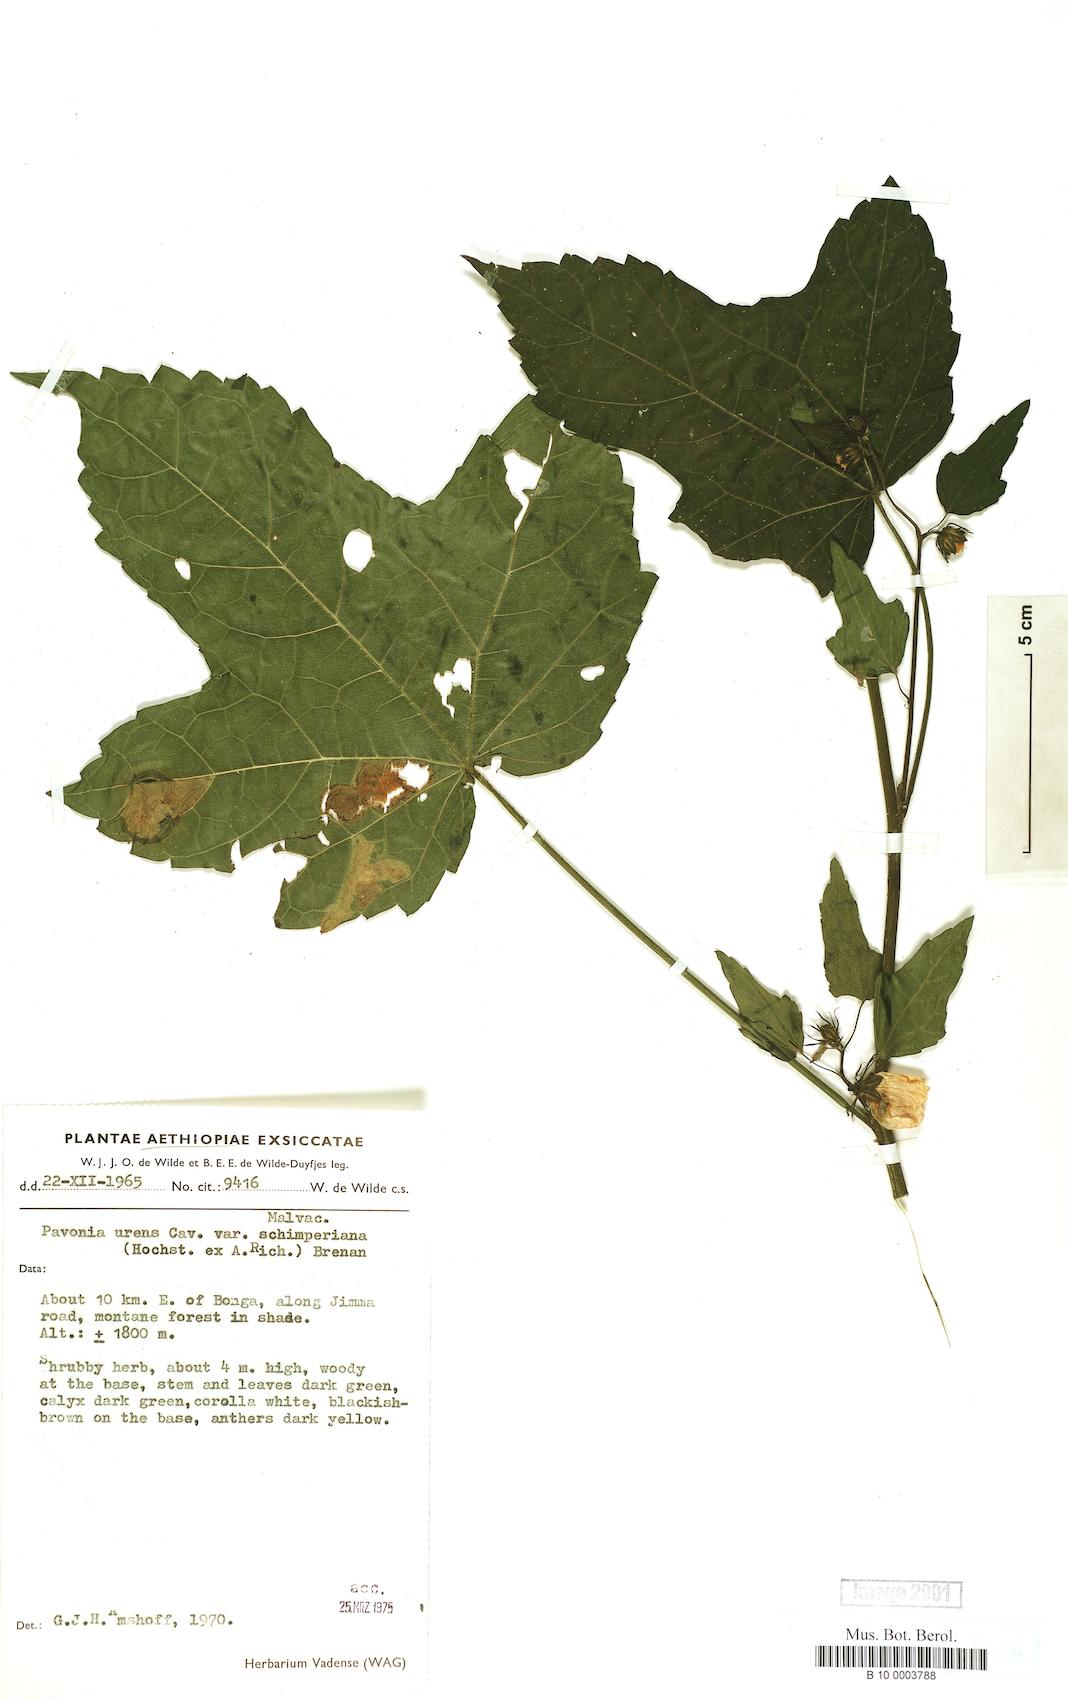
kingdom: Plantae
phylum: Tracheophyta
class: Magnoliopsida
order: Malvales
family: Malvaceae
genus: Pavonia
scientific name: Pavonia schimperiana
